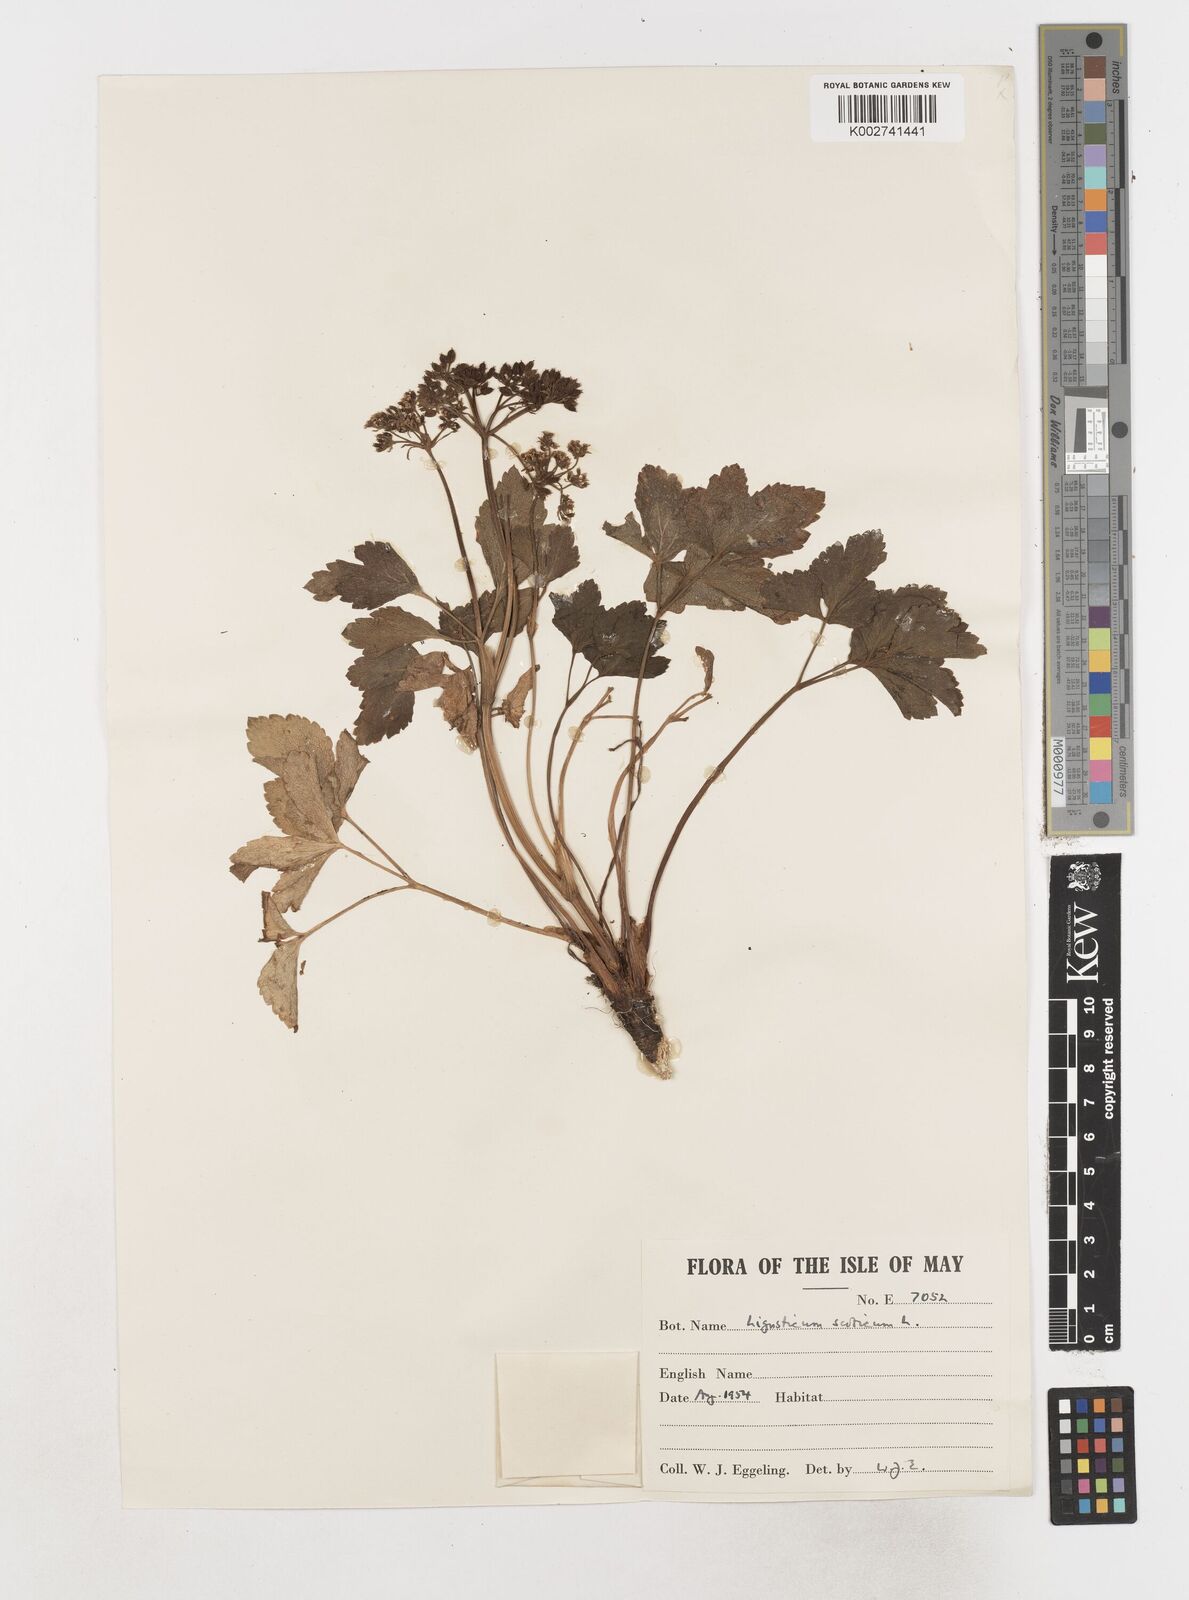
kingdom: Plantae
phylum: Tracheophyta
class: Magnoliopsida
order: Apiales
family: Apiaceae
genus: Ligusticum
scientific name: Ligusticum scothicum
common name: Beach lovage
